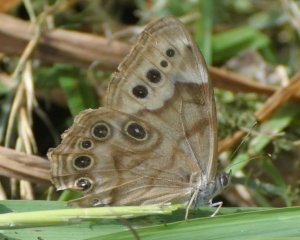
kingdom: Animalia
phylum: Arthropoda
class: Insecta
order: Lepidoptera
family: Nymphalidae
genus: Lethe
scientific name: Lethe anthedon
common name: Northern Pearly-Eye
